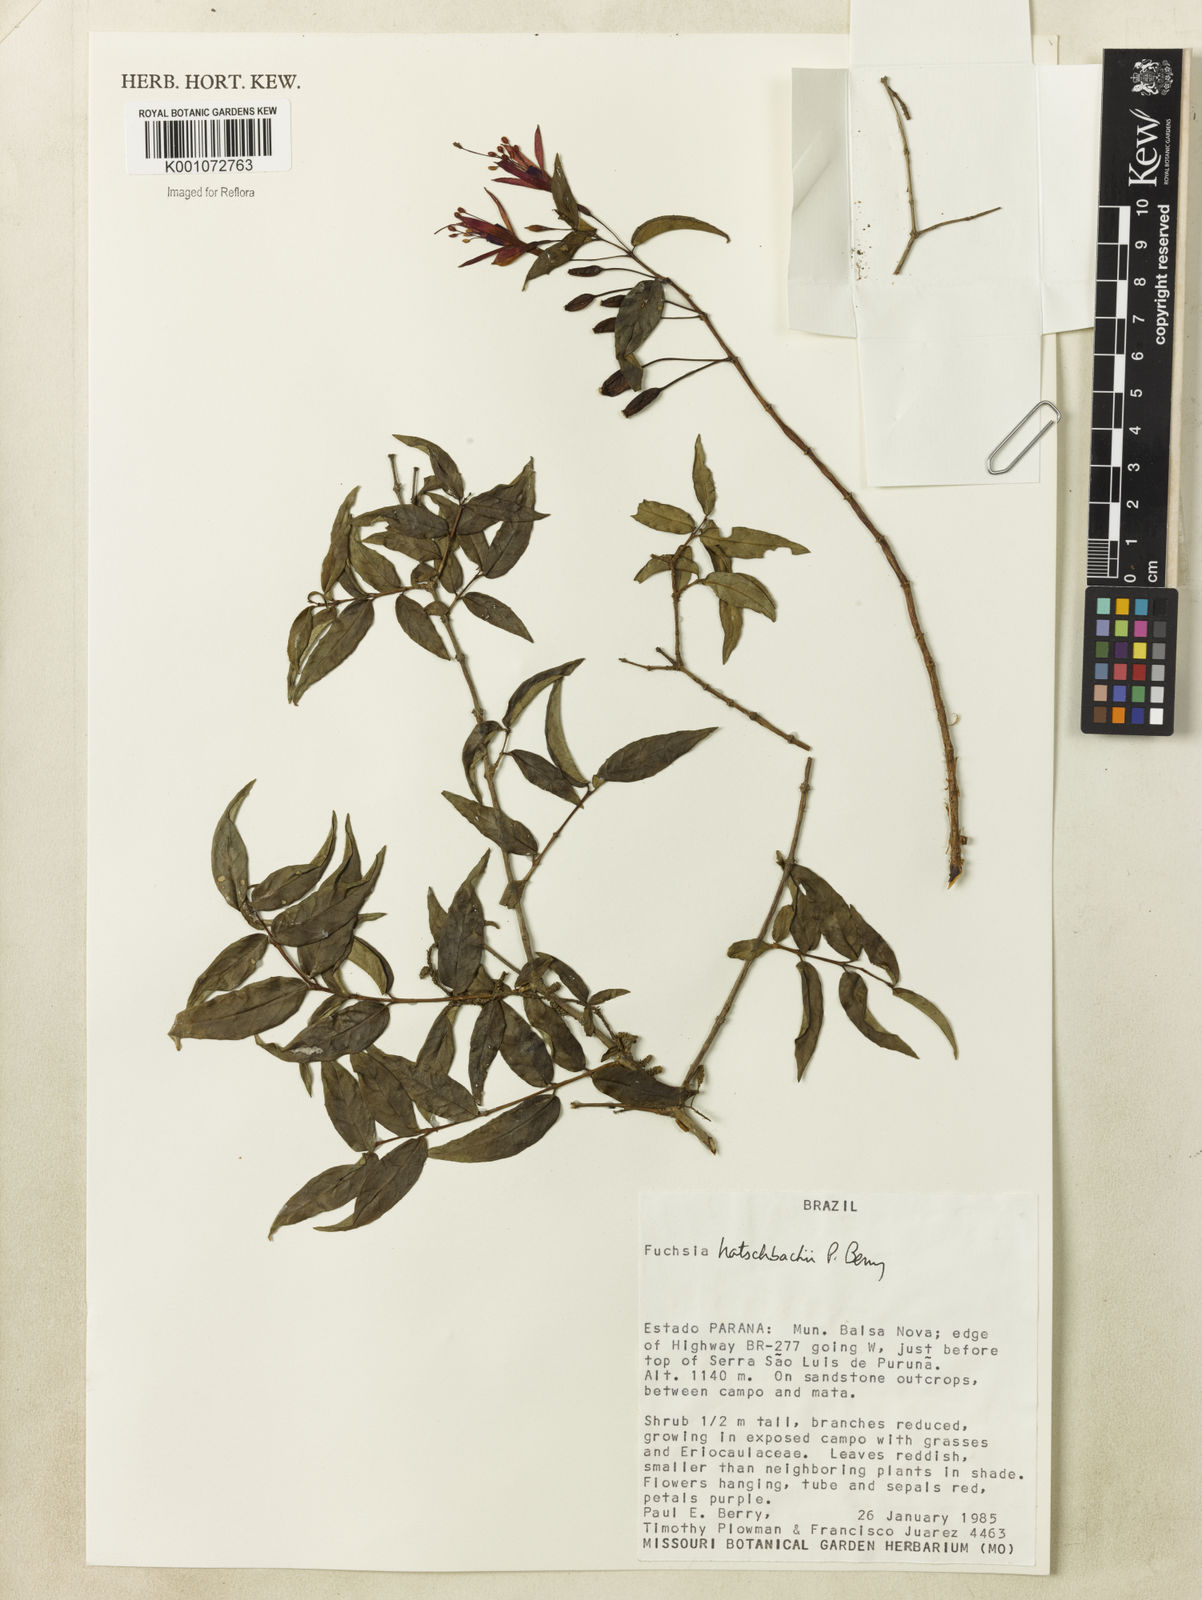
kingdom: Plantae
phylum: Tracheophyta
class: Magnoliopsida
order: Myrtales
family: Onagraceae
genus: Fuchsia
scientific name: Fuchsia hatschbachii
